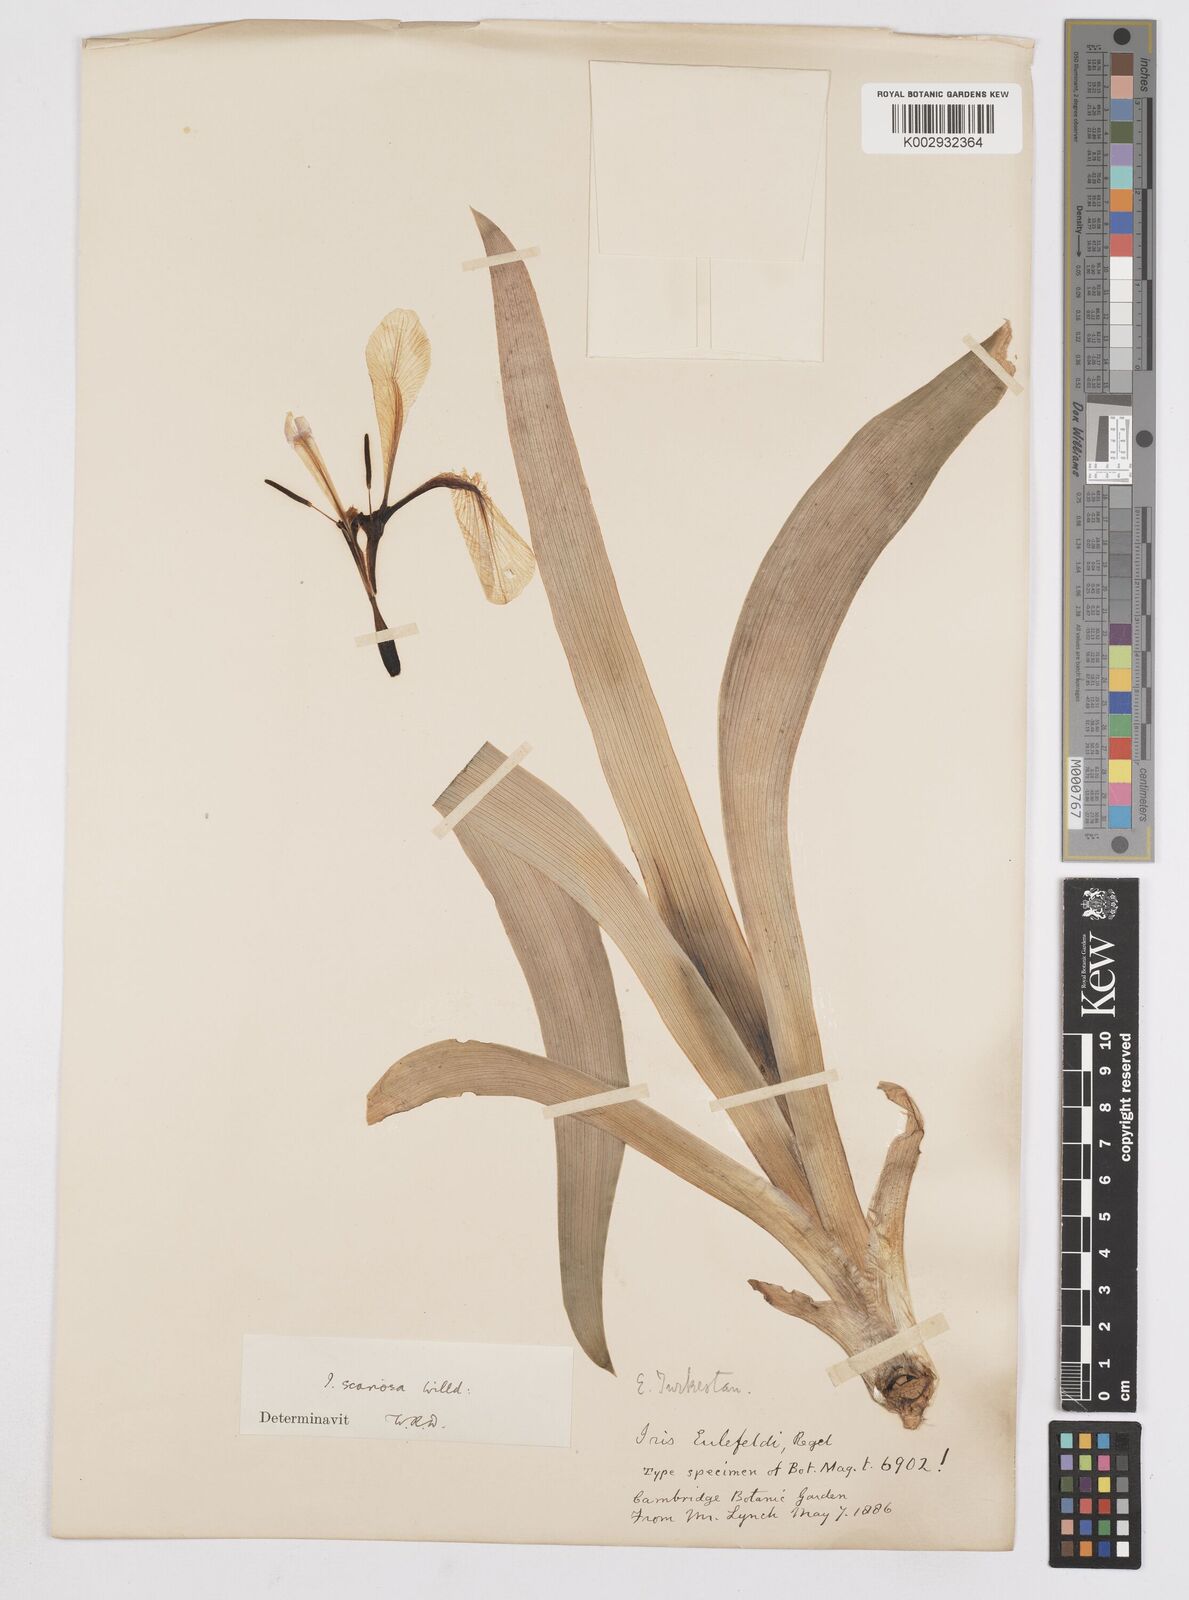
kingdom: Plantae
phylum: Tracheophyta
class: Liliopsida
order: Asparagales
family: Iridaceae
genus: Iris
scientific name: Iris scariosa
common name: Membrane-bract iris
